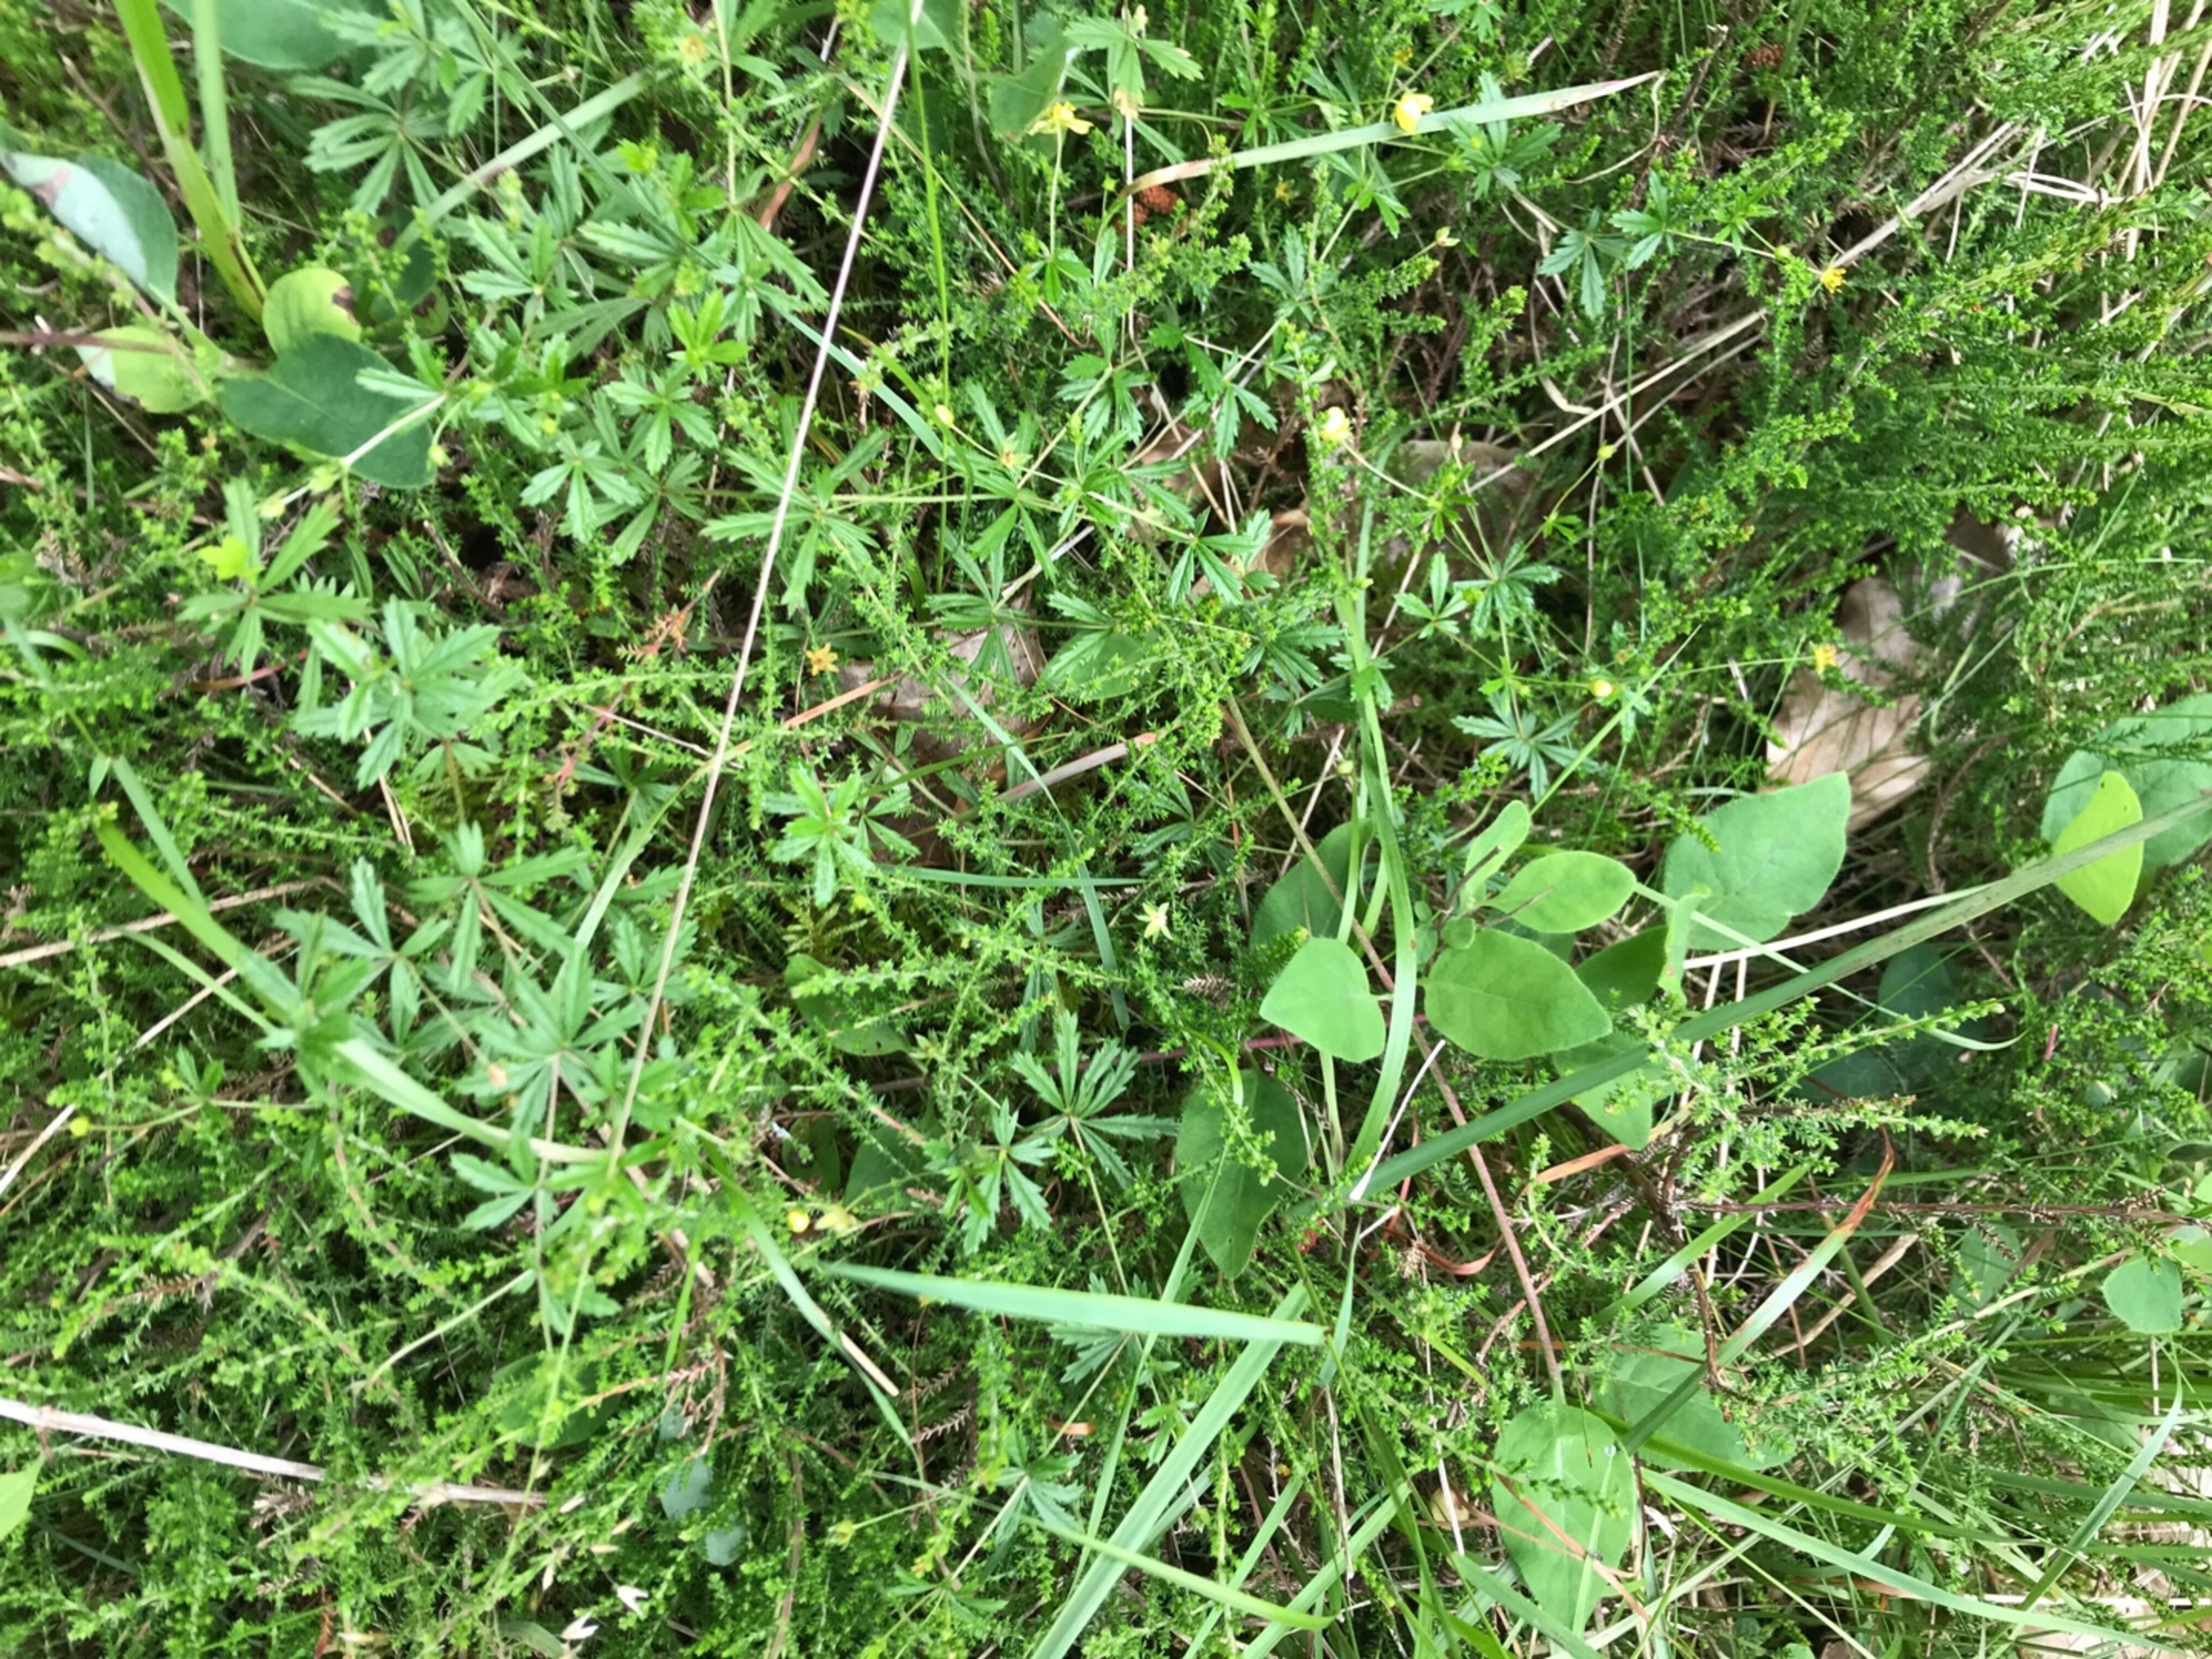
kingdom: Plantae
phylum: Tracheophyta
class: Magnoliopsida
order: Rosales
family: Rosaceae
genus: Potentilla
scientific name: Potentilla erecta
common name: Tormentil
